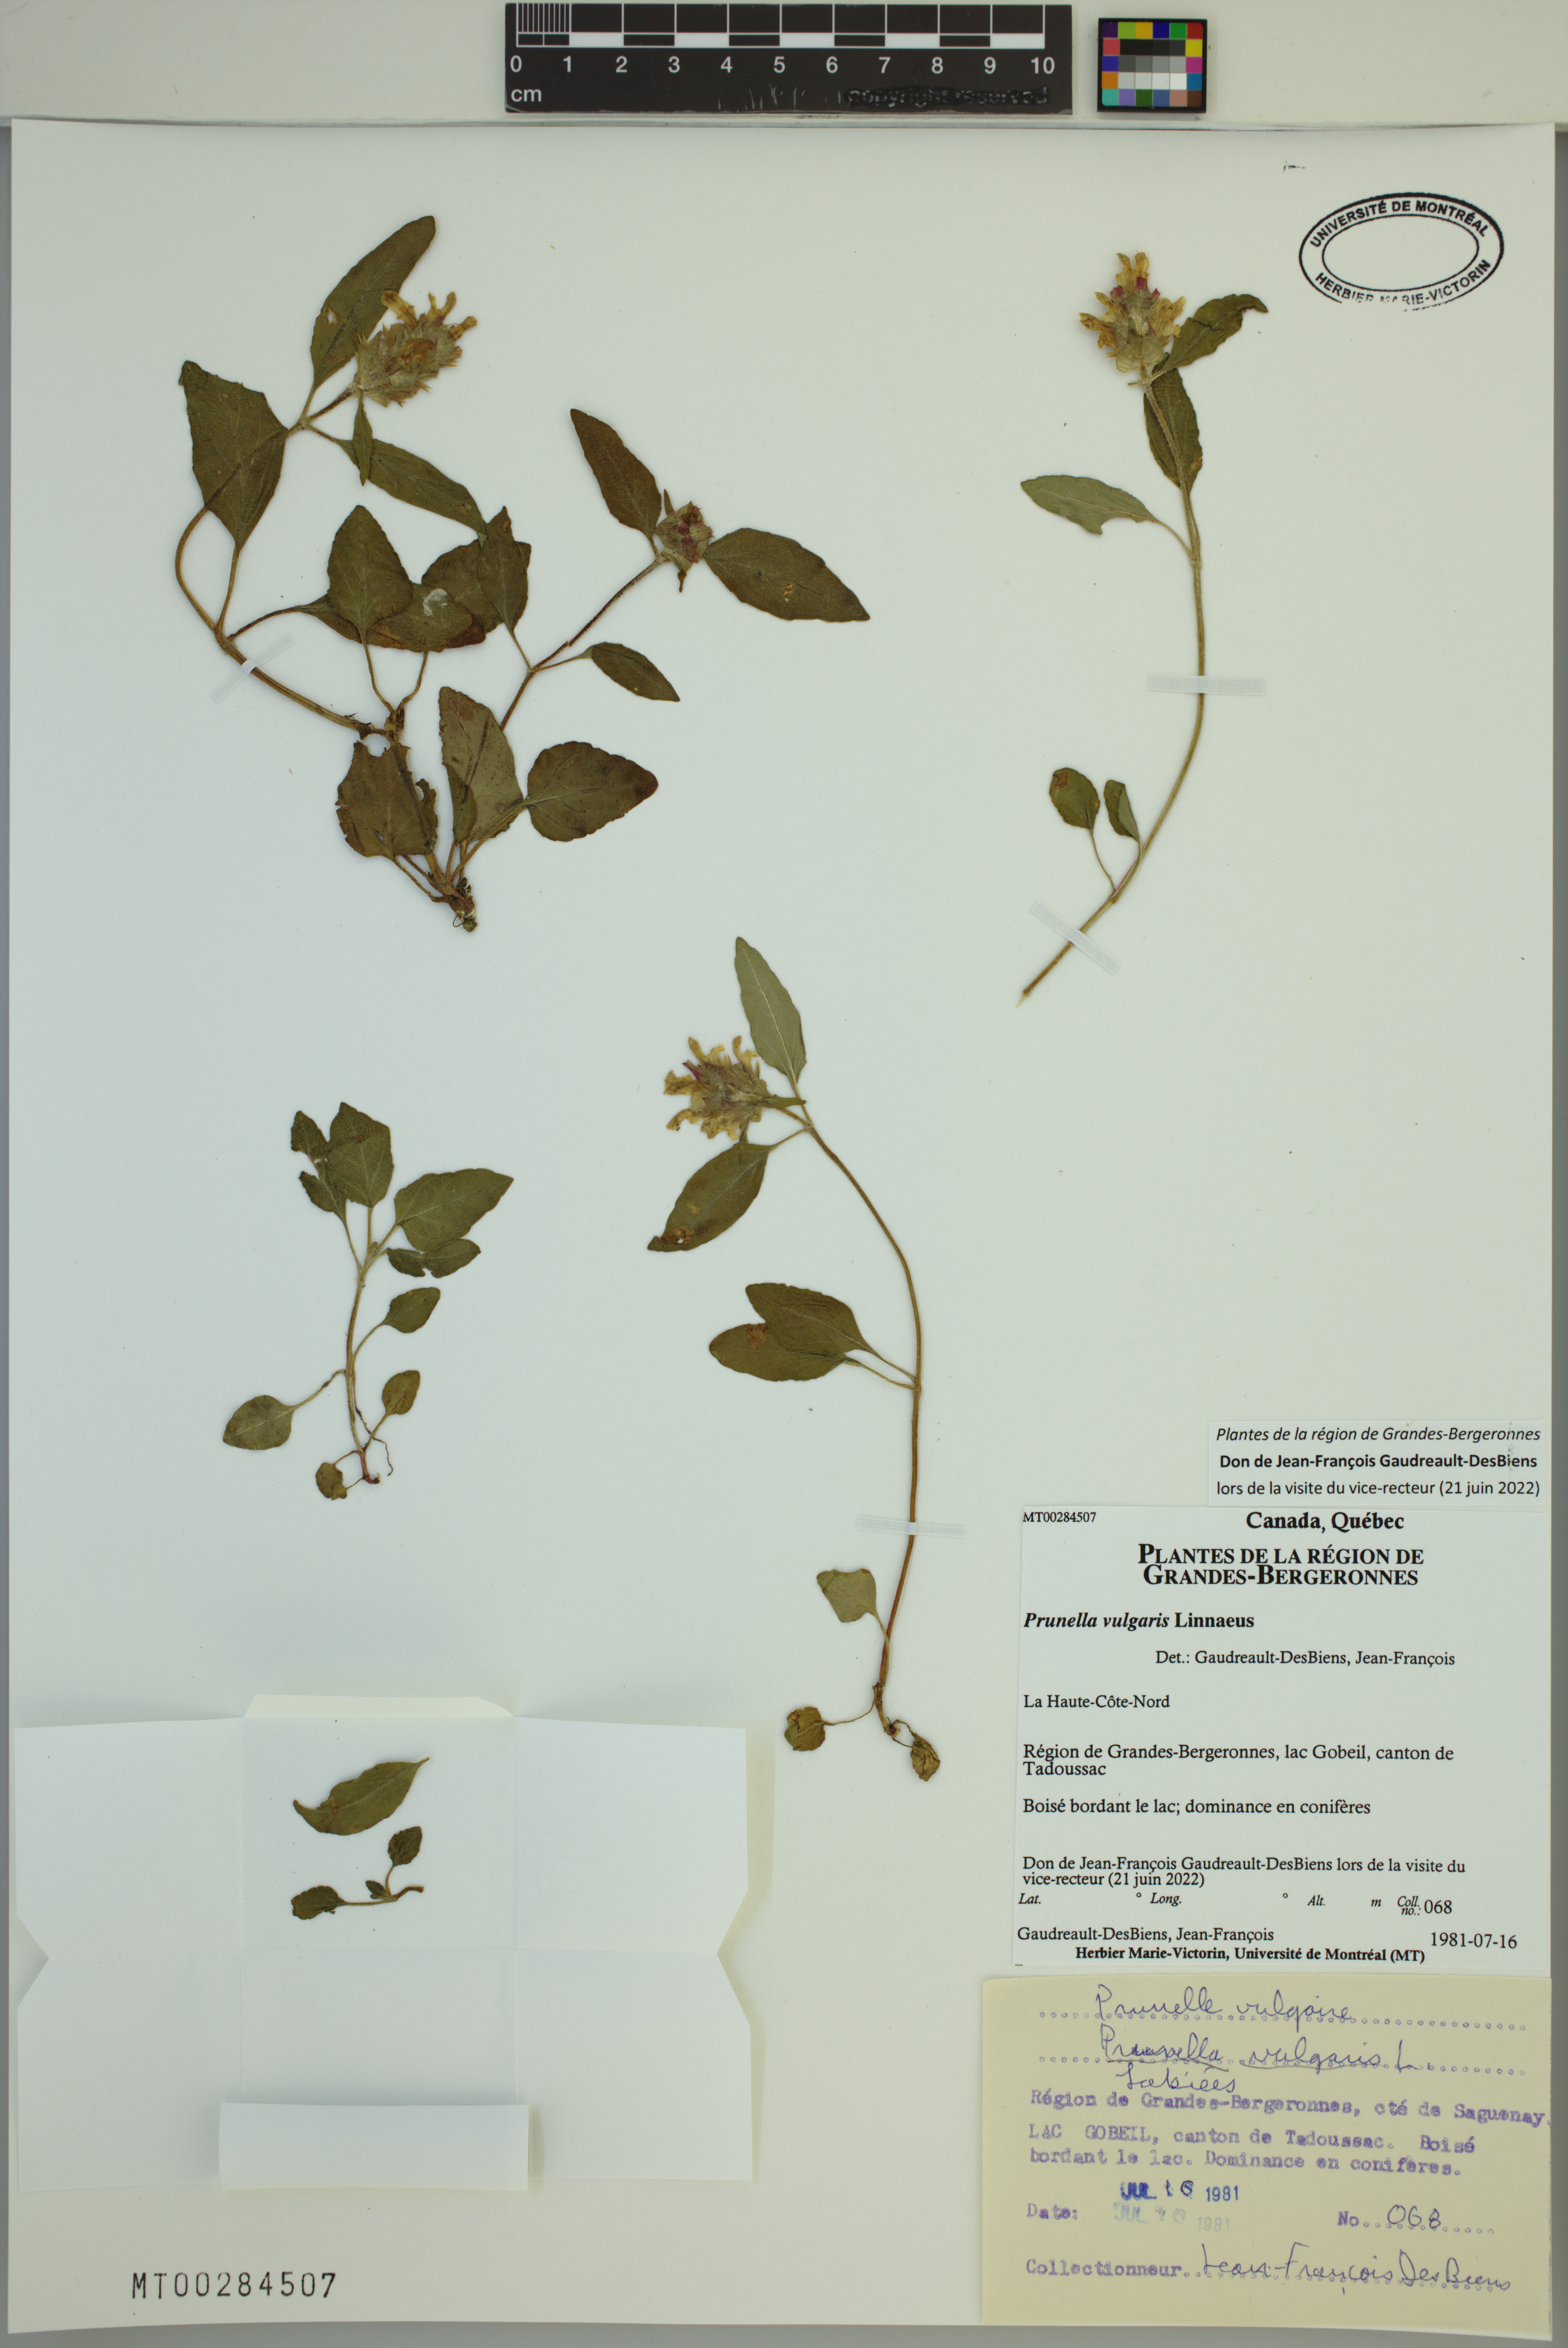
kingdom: Plantae
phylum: Tracheophyta
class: Magnoliopsida
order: Lamiales
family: Lamiaceae
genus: Prunella
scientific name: Prunella vulgaris
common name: Heal-all
